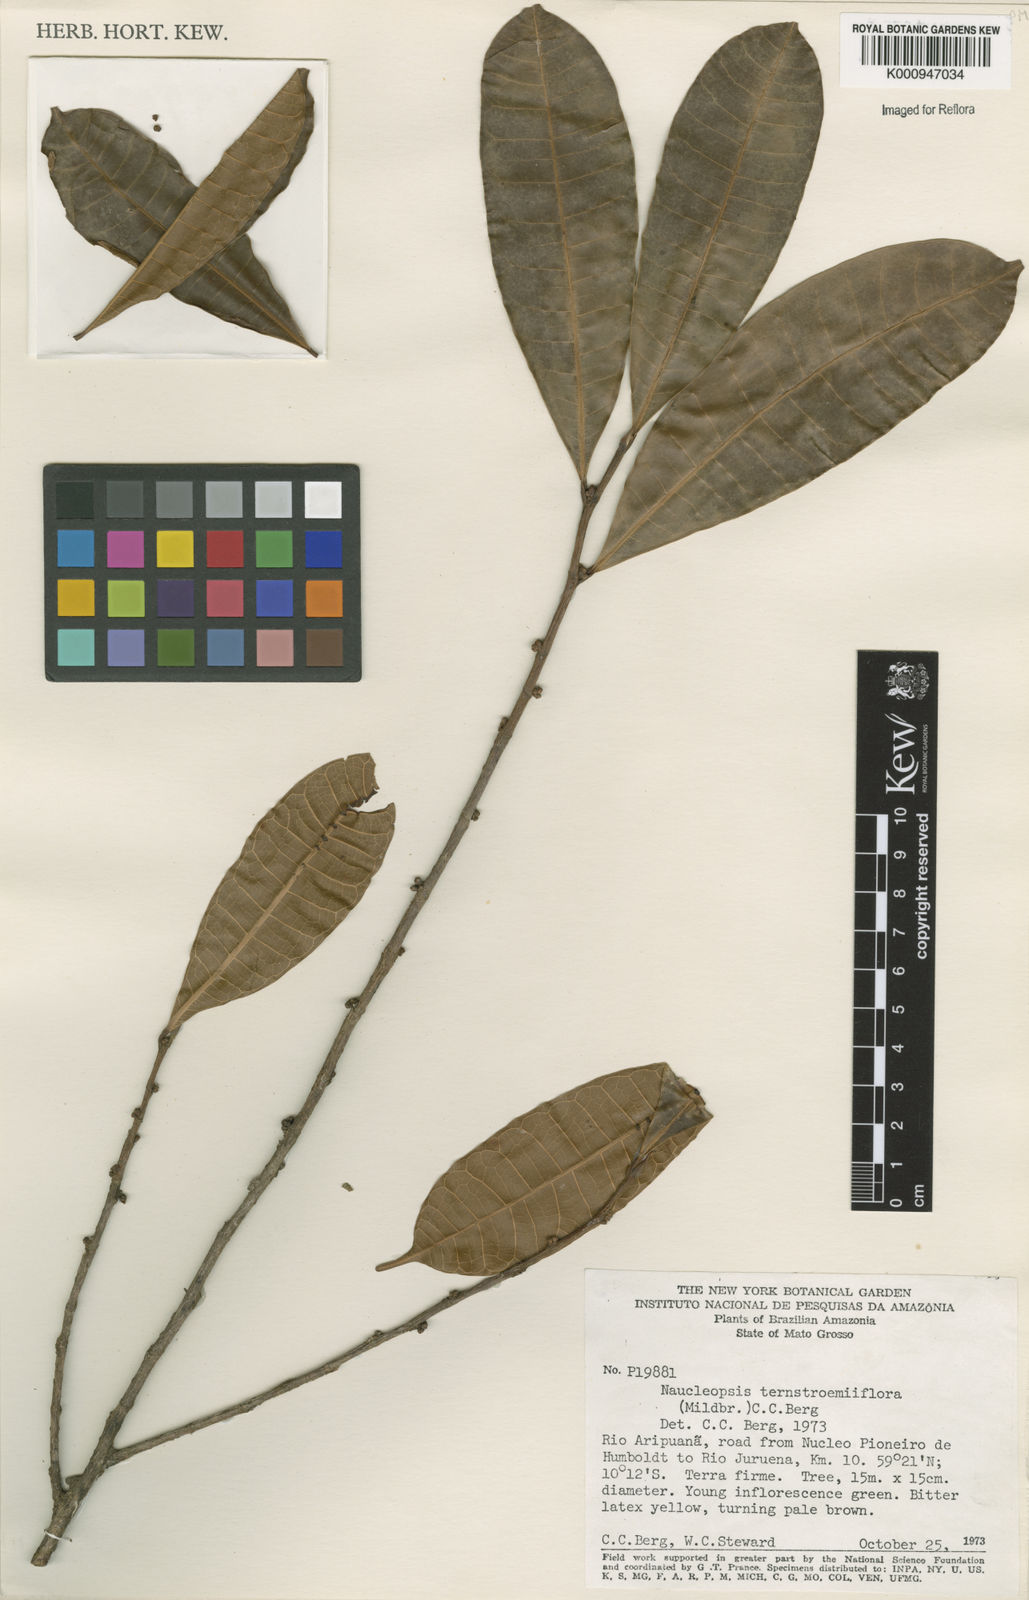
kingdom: Plantae
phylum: Tracheophyta
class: Magnoliopsida
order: Rosales
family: Moraceae
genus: Naucleopsis
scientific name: Naucleopsis ternstroemiiflora
